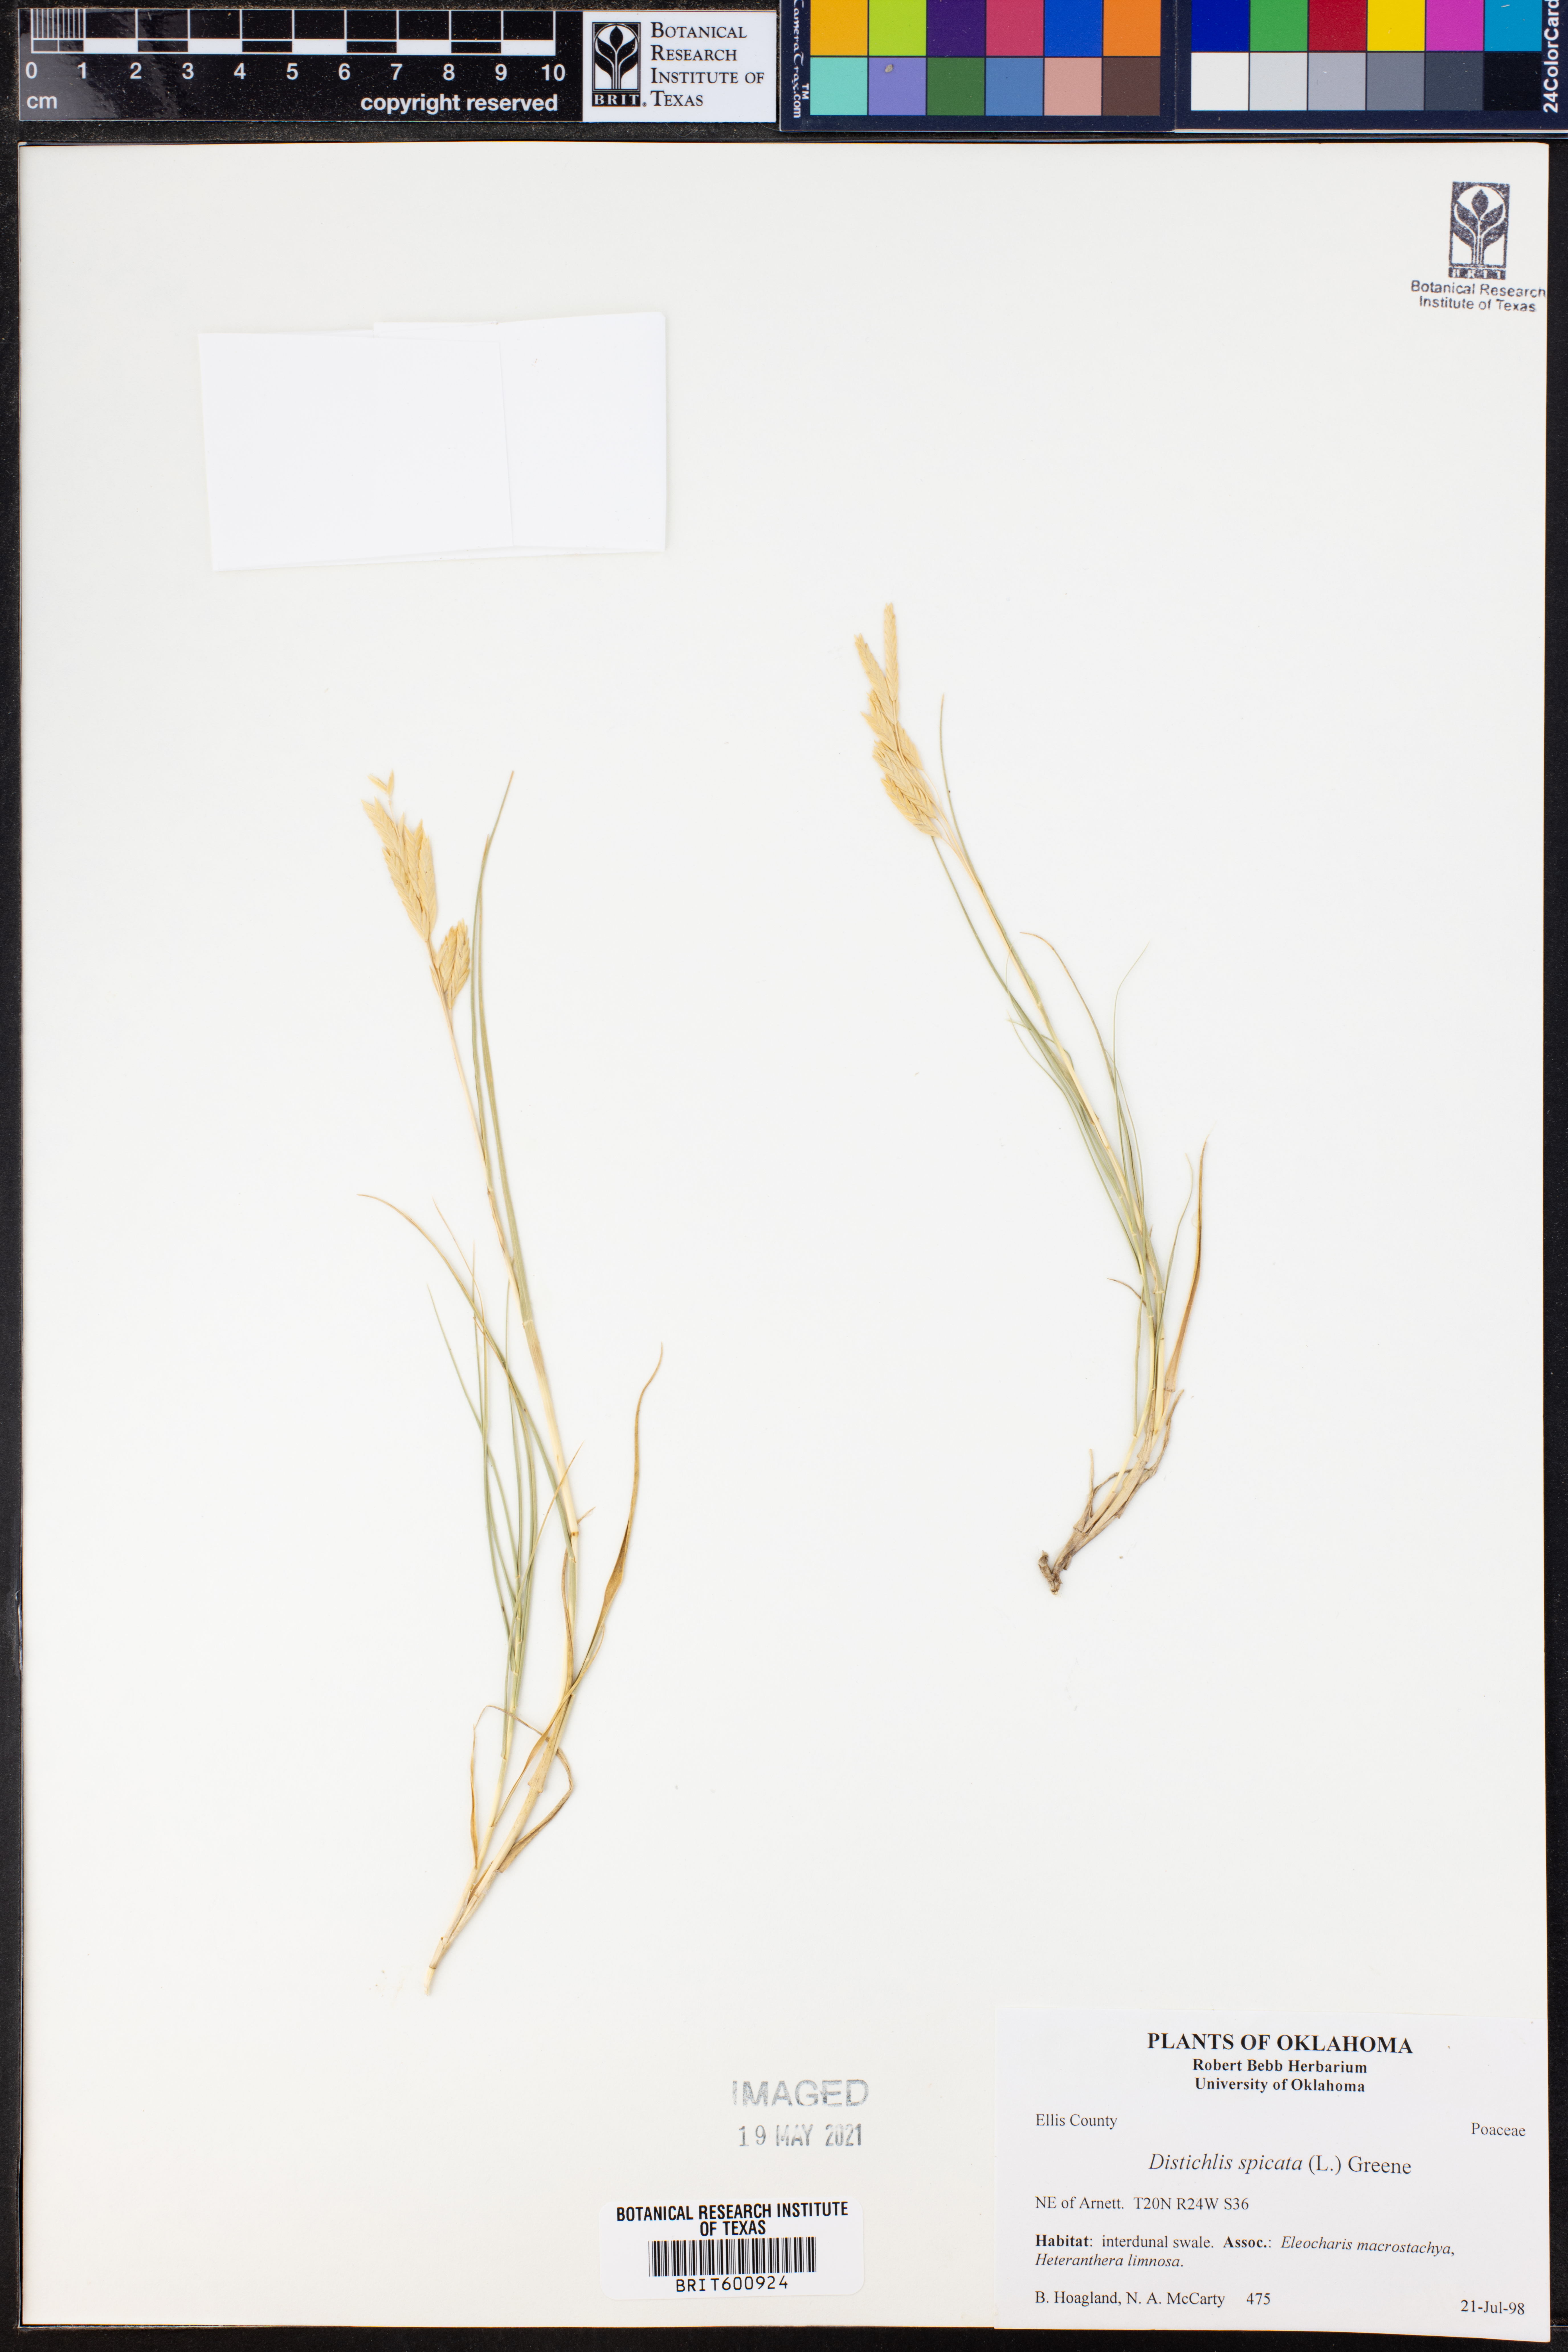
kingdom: Plantae
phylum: Tracheophyta
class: Liliopsida
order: Poales
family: Poaceae
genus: Distichlis
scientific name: Distichlis spicata
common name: Saltgrass
